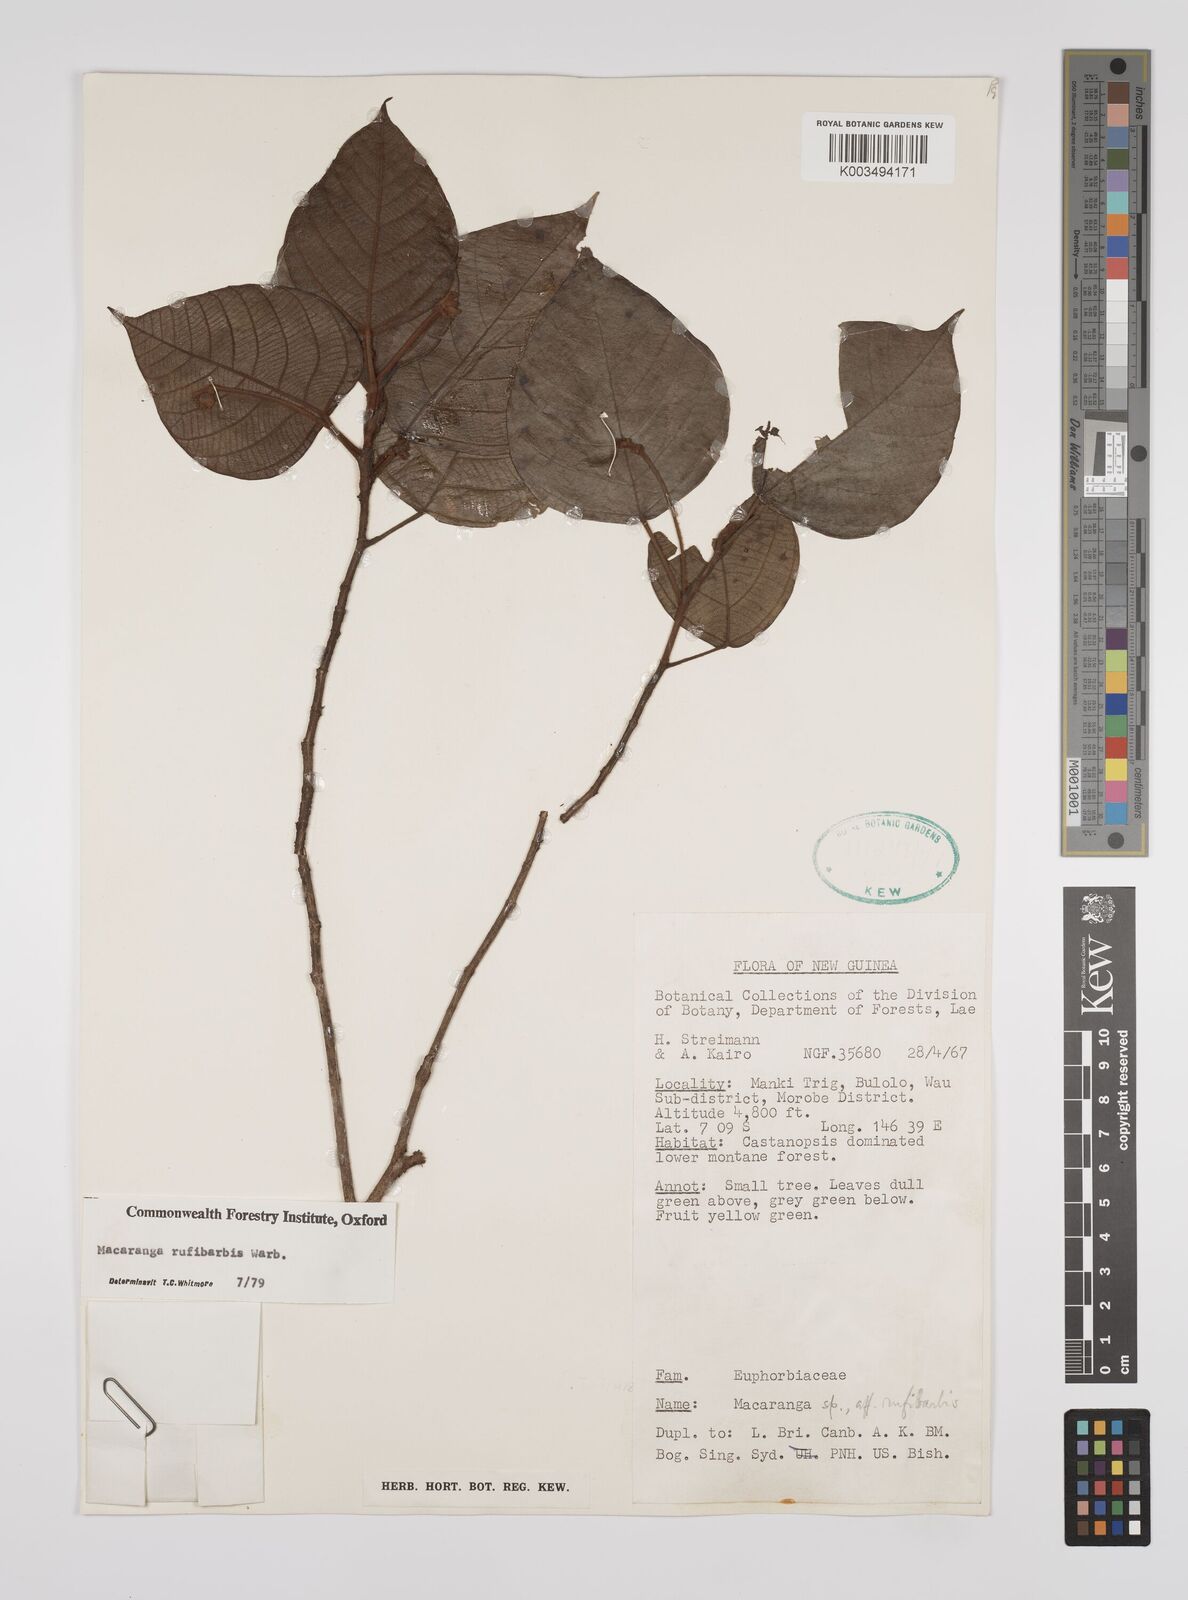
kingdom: Plantae
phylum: Tracheophyta
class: Magnoliopsida
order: Malpighiales
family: Euphorbiaceae
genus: Macaranga
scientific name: Macaranga rufibarbis
